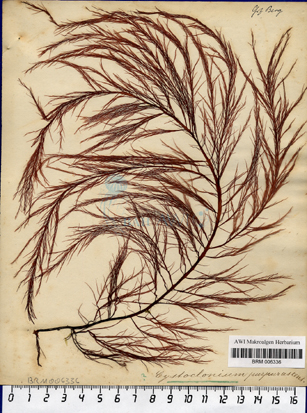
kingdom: Plantae
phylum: Rhodophyta
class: Florideophyceae
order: Gigartinales
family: Cystocloniaceae
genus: Cystoclonium
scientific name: Cystoclonium purpureum
